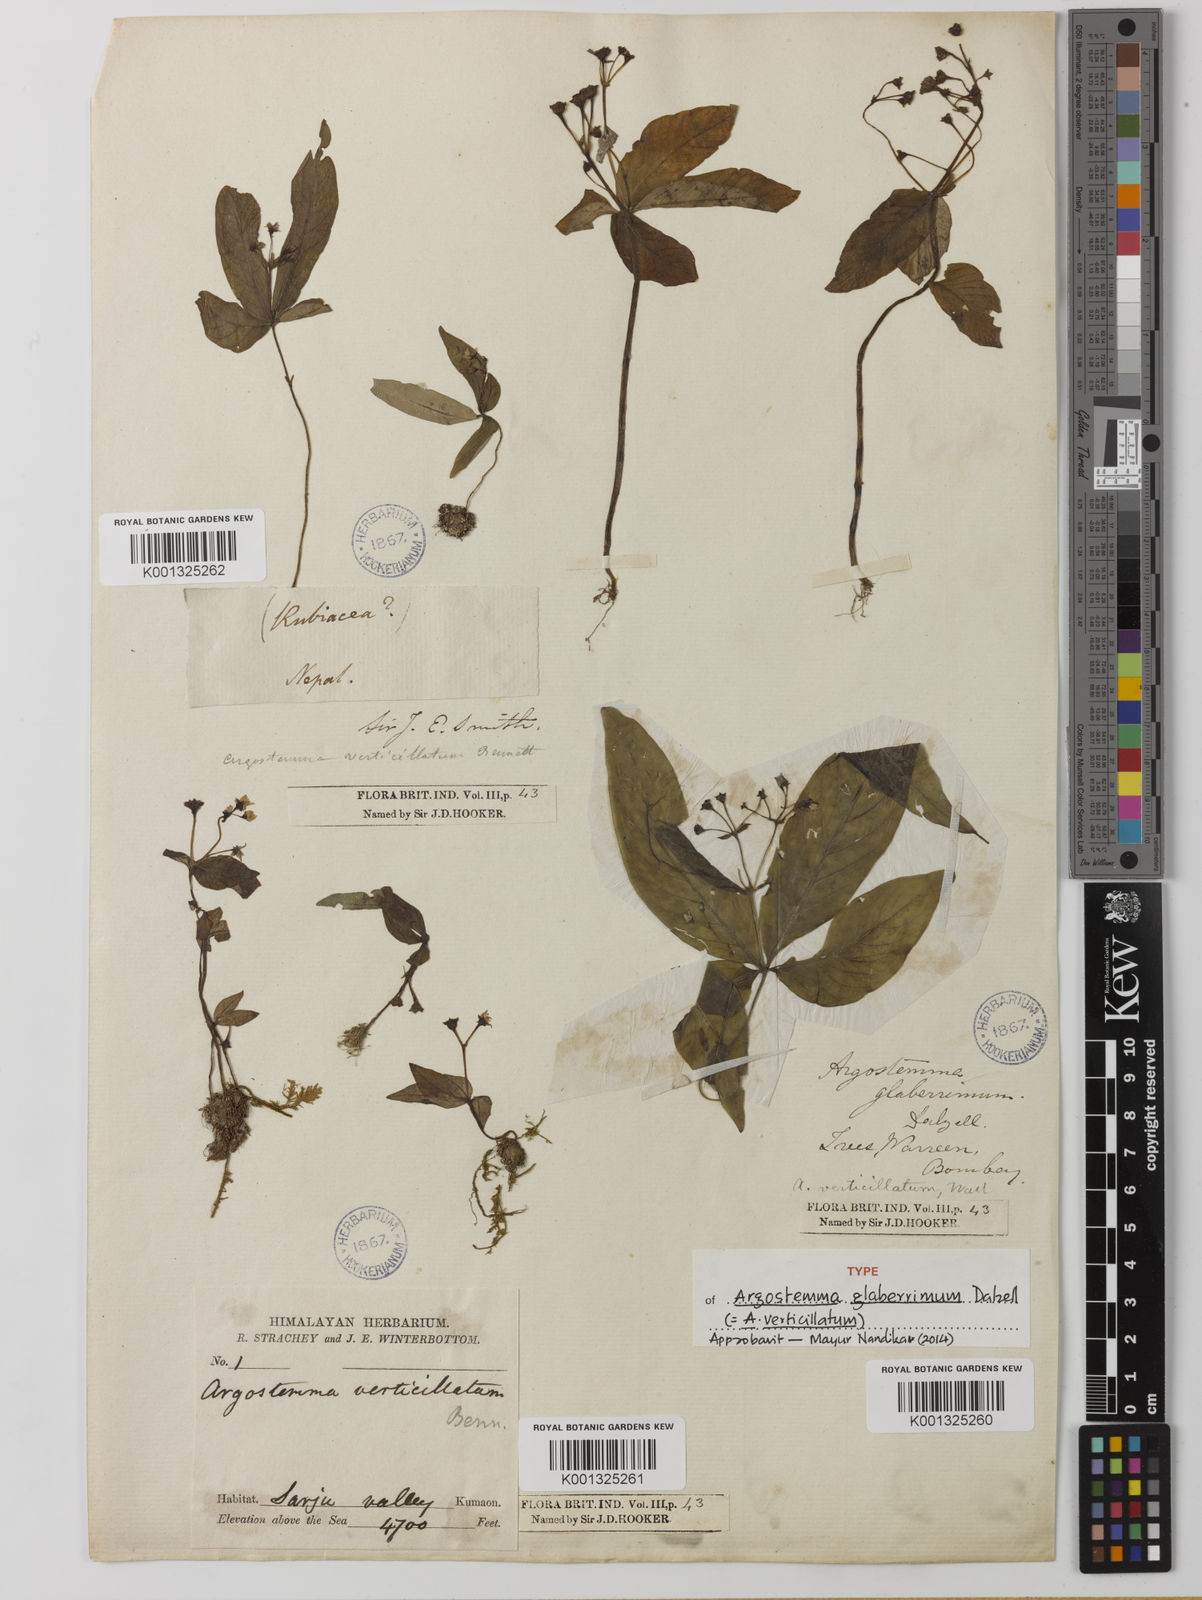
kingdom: Plantae
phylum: Tracheophyta
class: Magnoliopsida
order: Gentianales
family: Rubiaceae
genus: Argostemma
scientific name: Argostemma verticillatum
